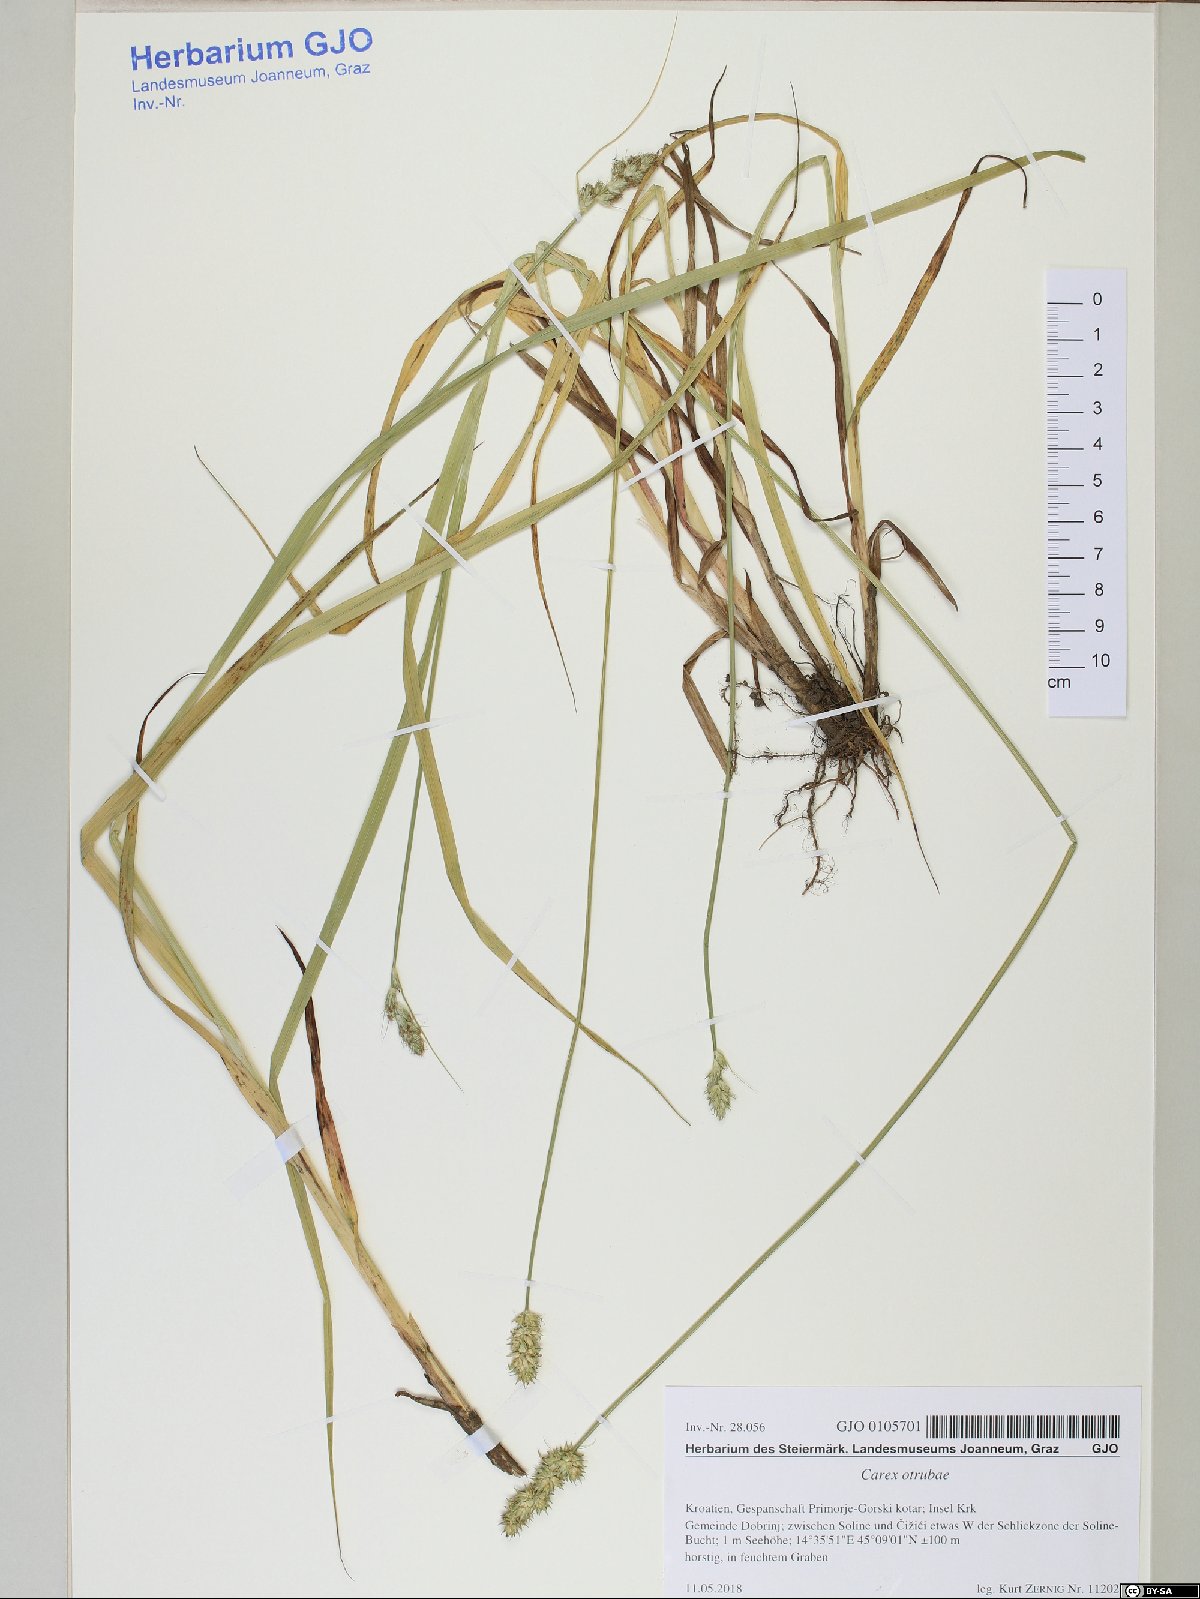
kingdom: Plantae
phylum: Tracheophyta
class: Liliopsida
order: Poales
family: Cyperaceae
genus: Carex
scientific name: Carex otrubae
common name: False fox-sedge
